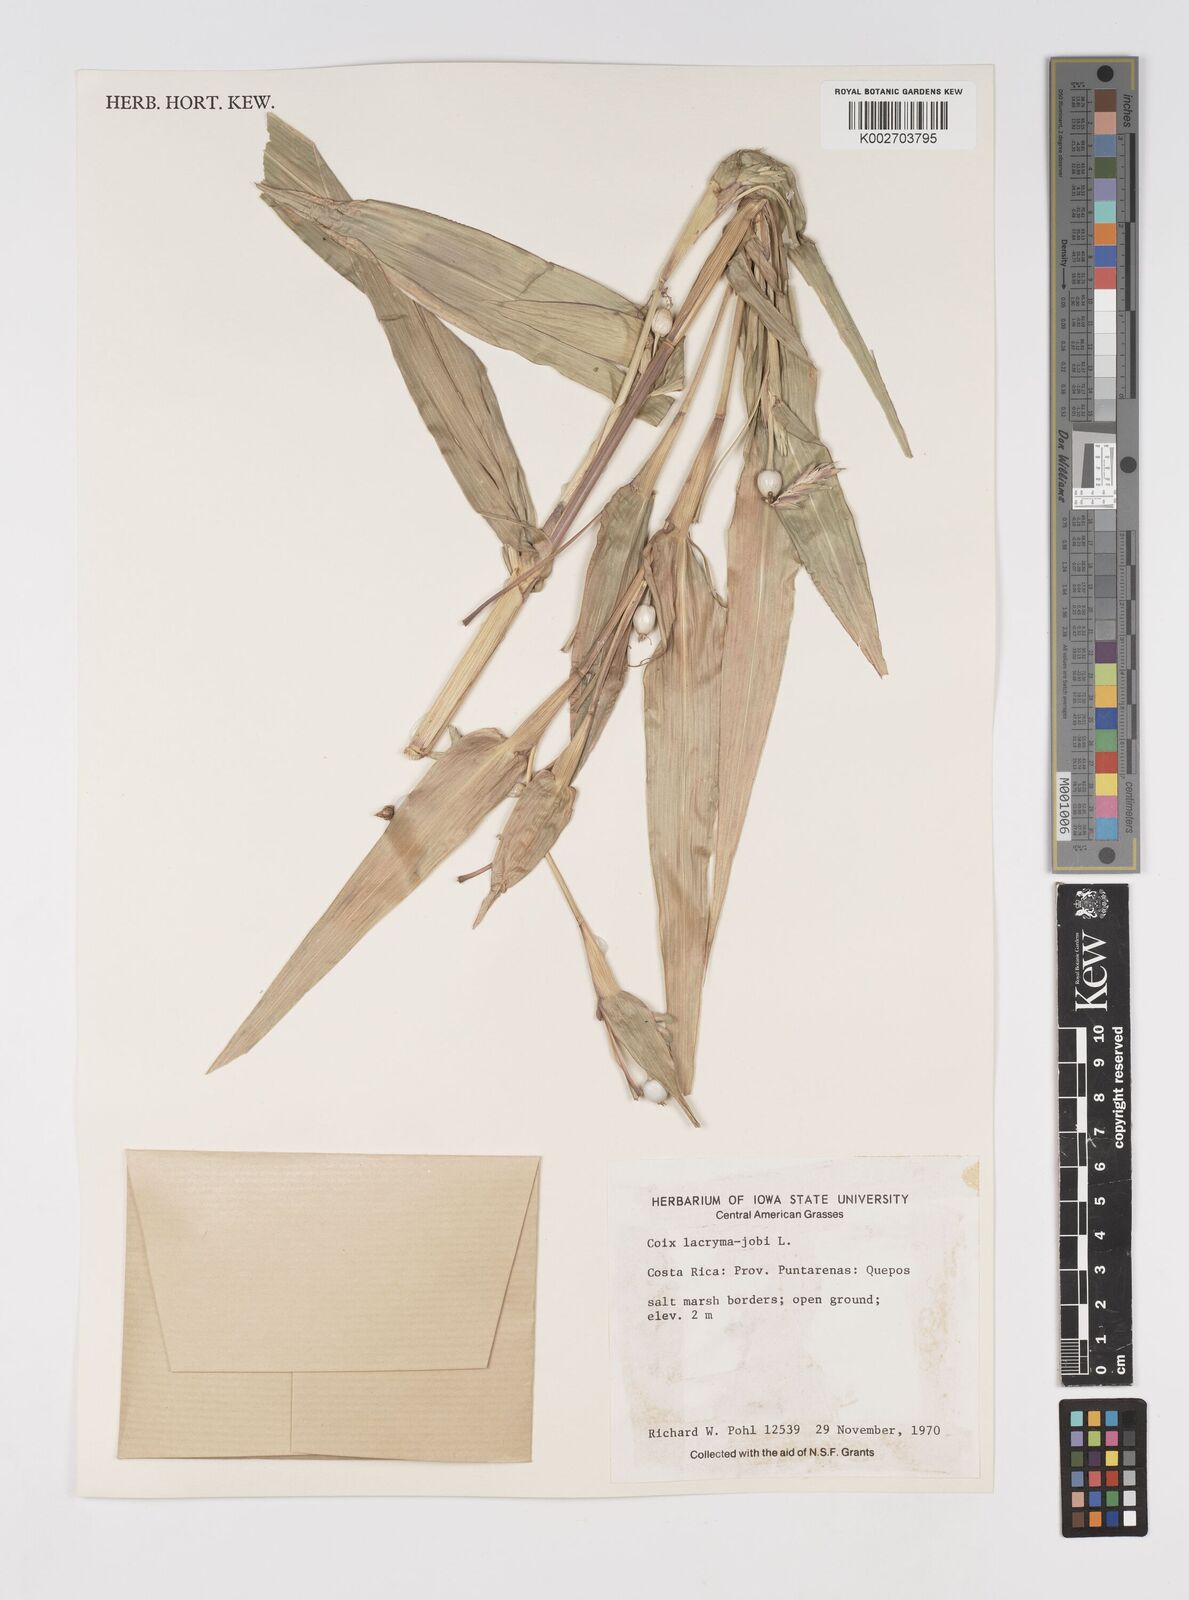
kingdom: Plantae
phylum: Tracheophyta
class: Liliopsida
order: Poales
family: Poaceae
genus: Coix
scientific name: Coix lacryma-jobi
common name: Job's tears
